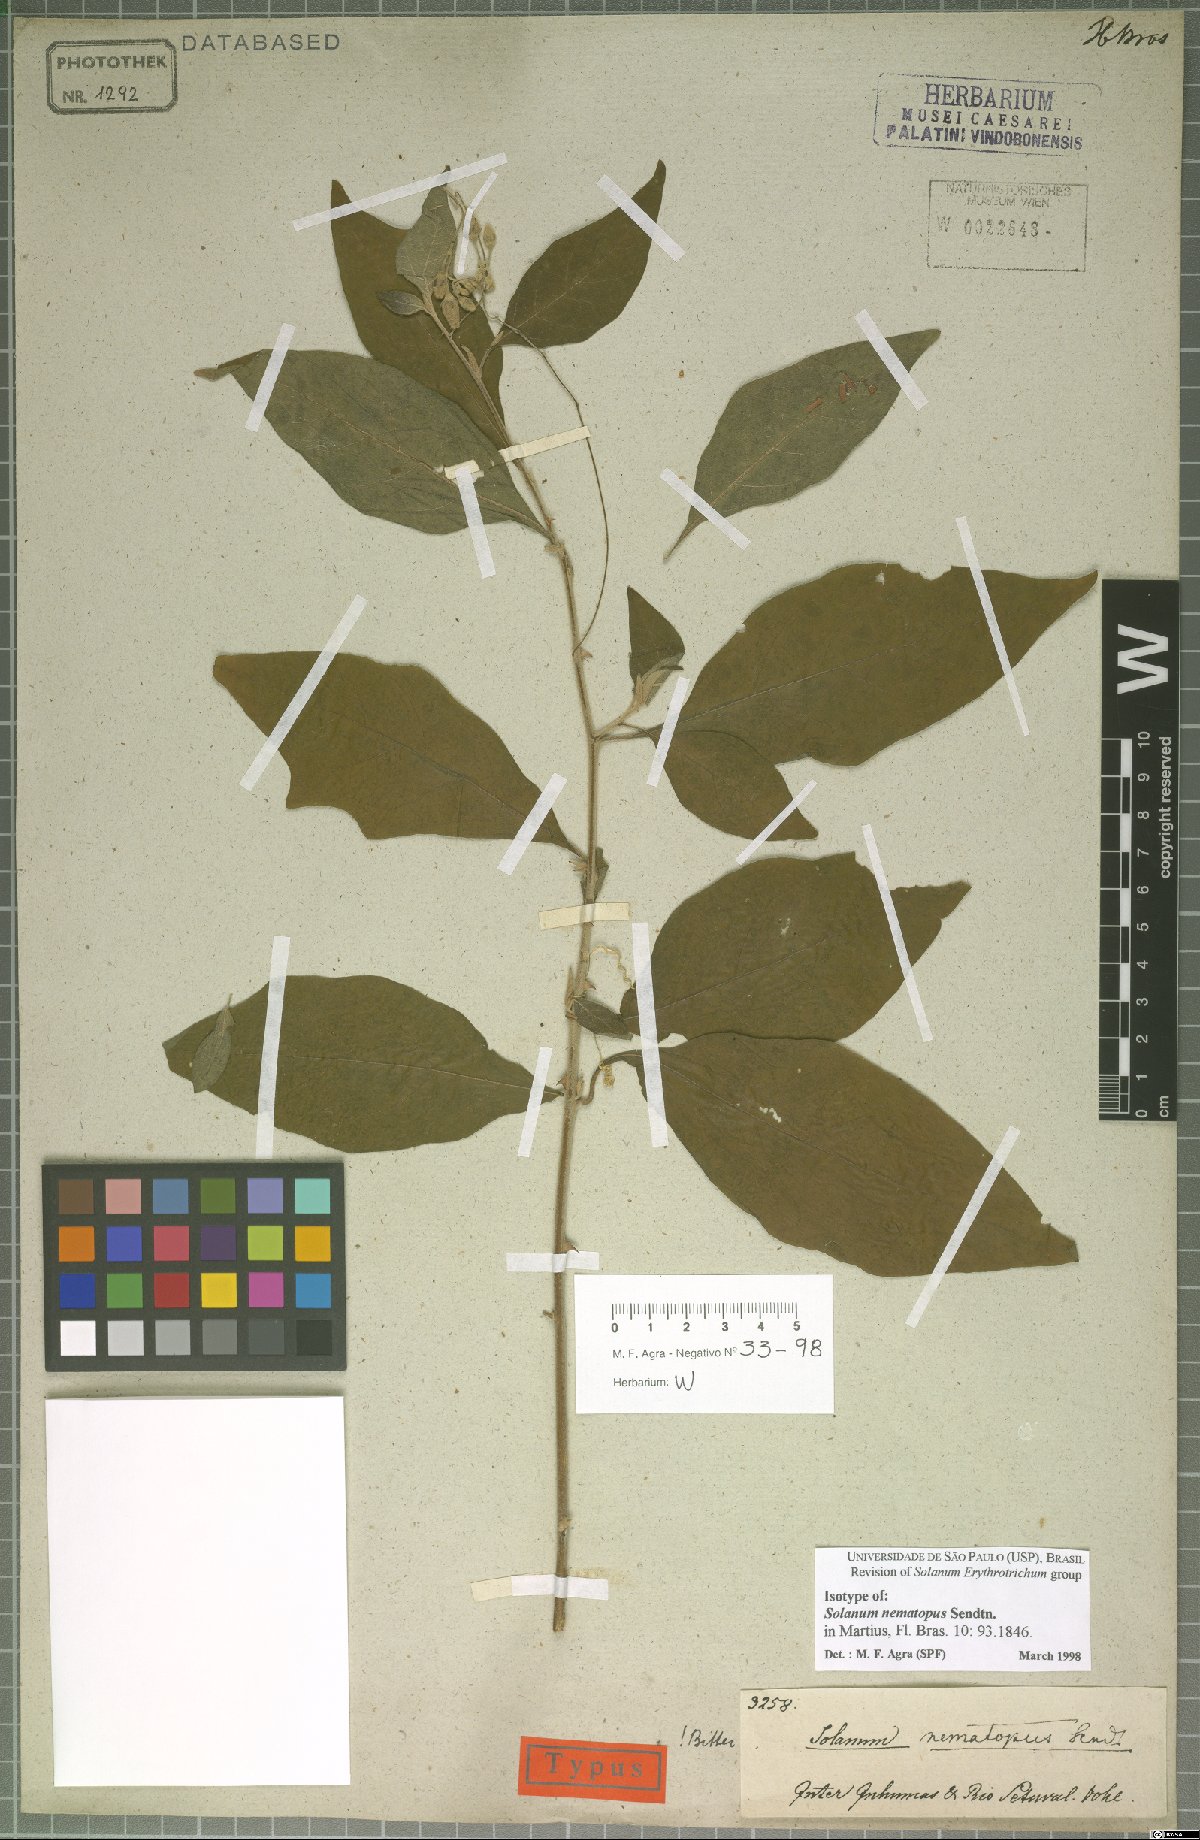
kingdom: Plantae
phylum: Tracheophyta
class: Magnoliopsida
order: Solanales
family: Solanaceae
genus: Solanum
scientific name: Solanum nematopus
